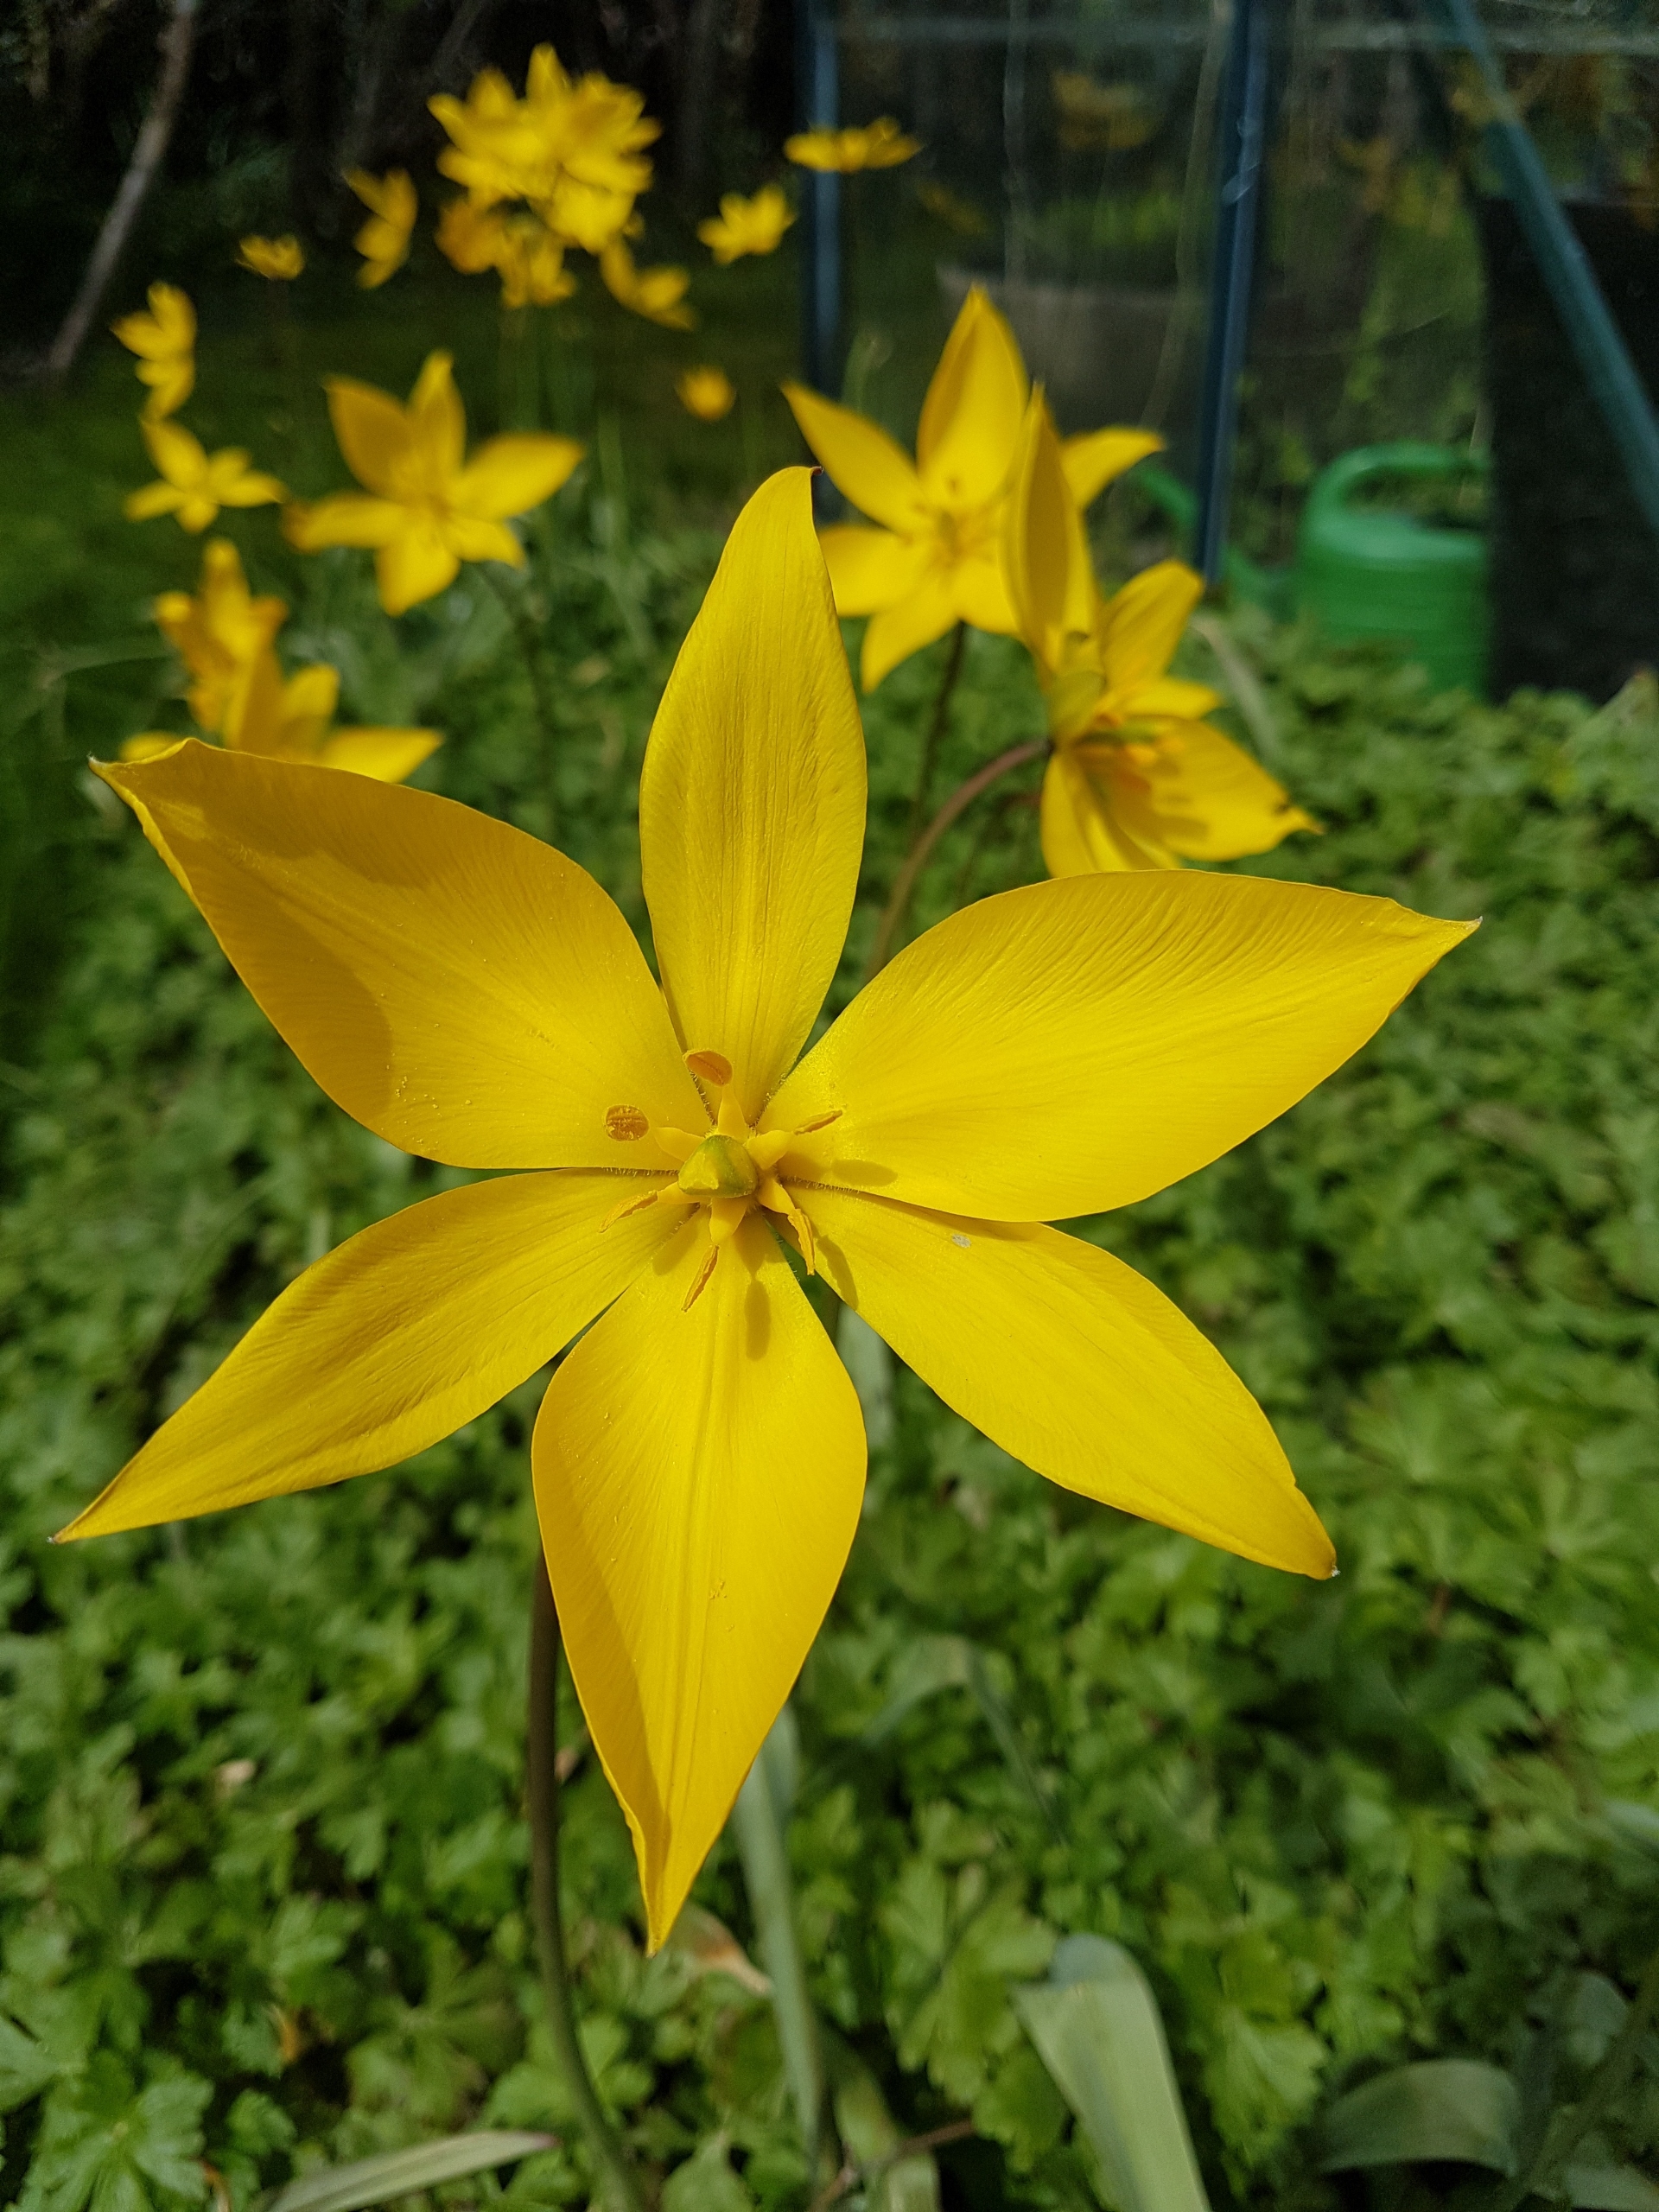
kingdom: Plantae
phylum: Tracheophyta
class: Liliopsida
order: Liliales
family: Liliaceae
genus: Tulipa
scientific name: Tulipa sylvestris
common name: Vild tulipan
